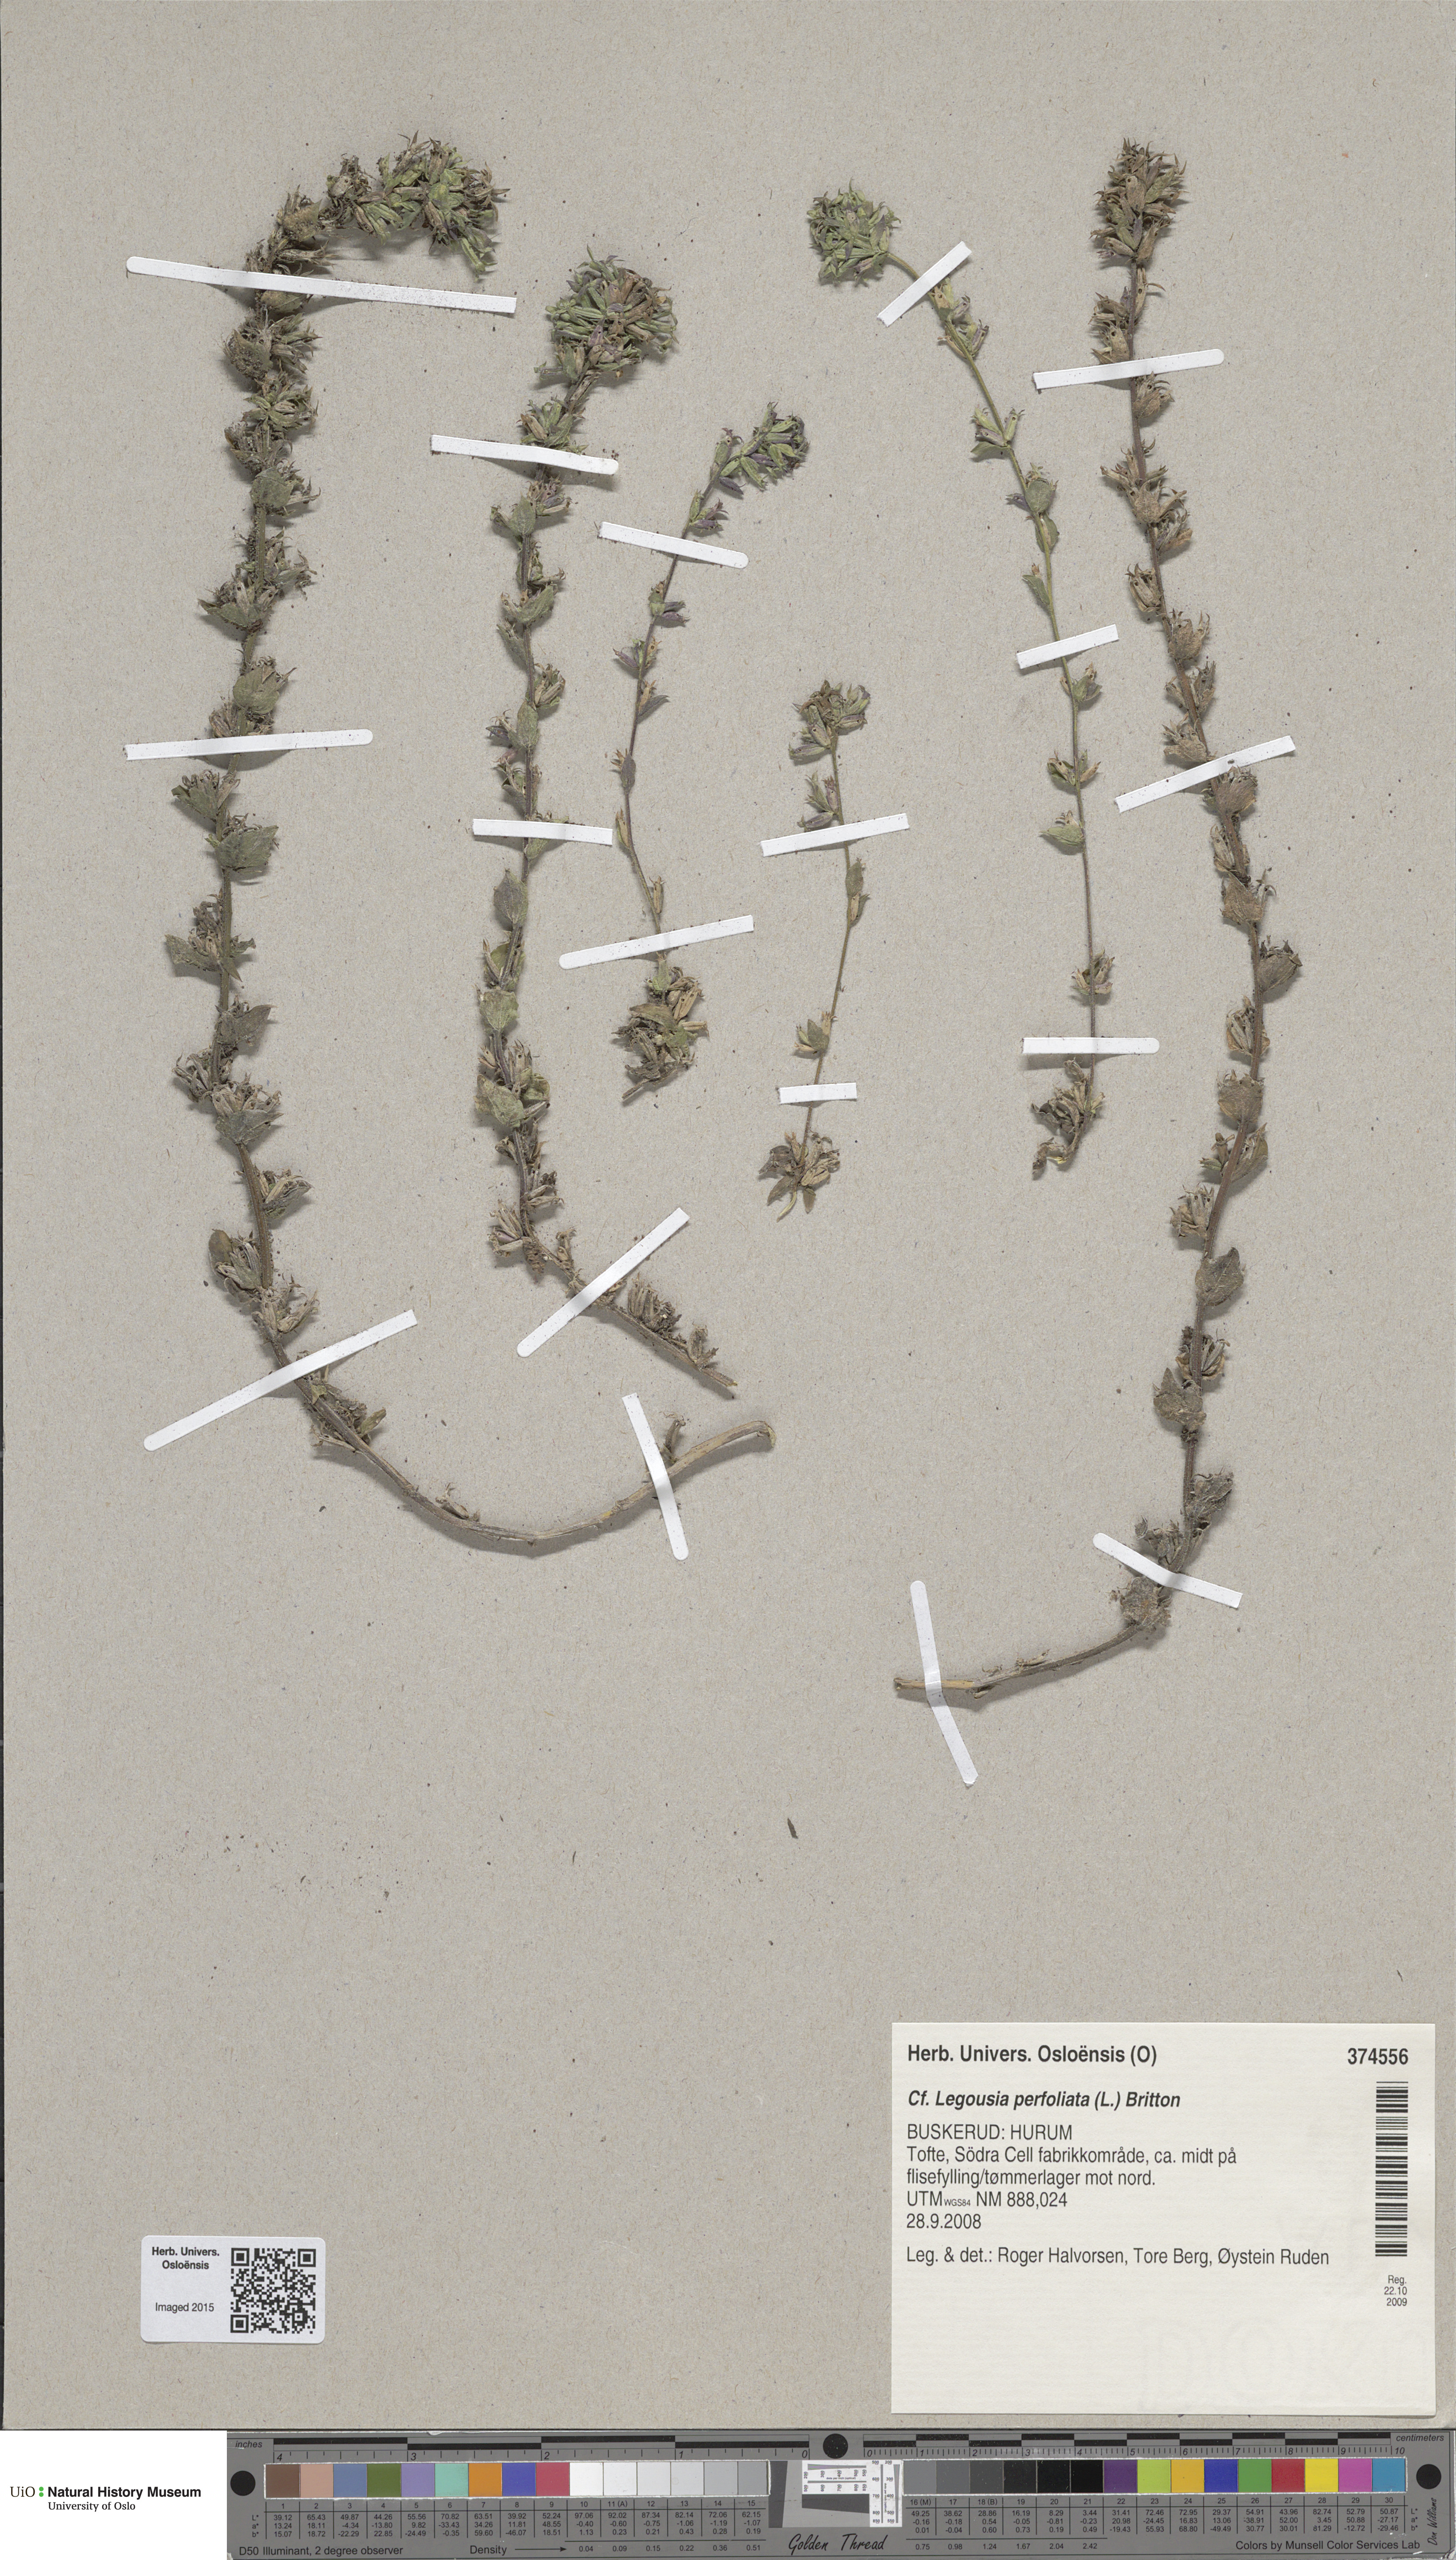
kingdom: Plantae
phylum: Tracheophyta
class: Magnoliopsida
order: Asterales
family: Campanulaceae
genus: Triodanis
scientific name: Triodanis perfoliata
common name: Clasping venus' looking-glass
